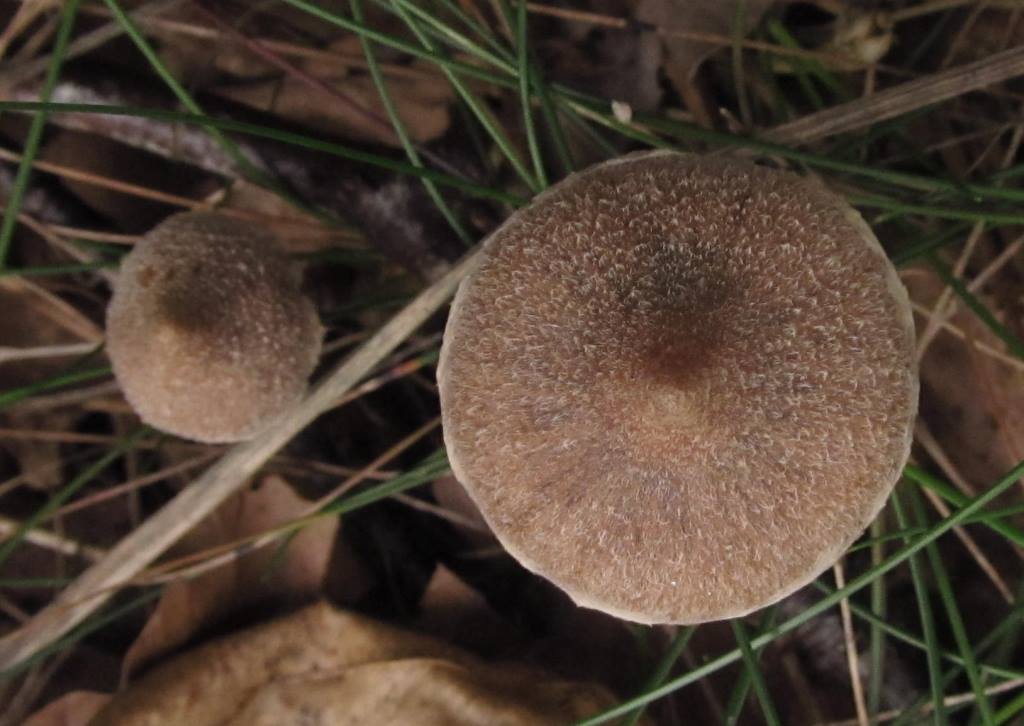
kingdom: Fungi
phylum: Basidiomycota
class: Agaricomycetes
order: Agaricales
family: Cortinariaceae
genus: Cortinarius
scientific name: Cortinarius flexipes
